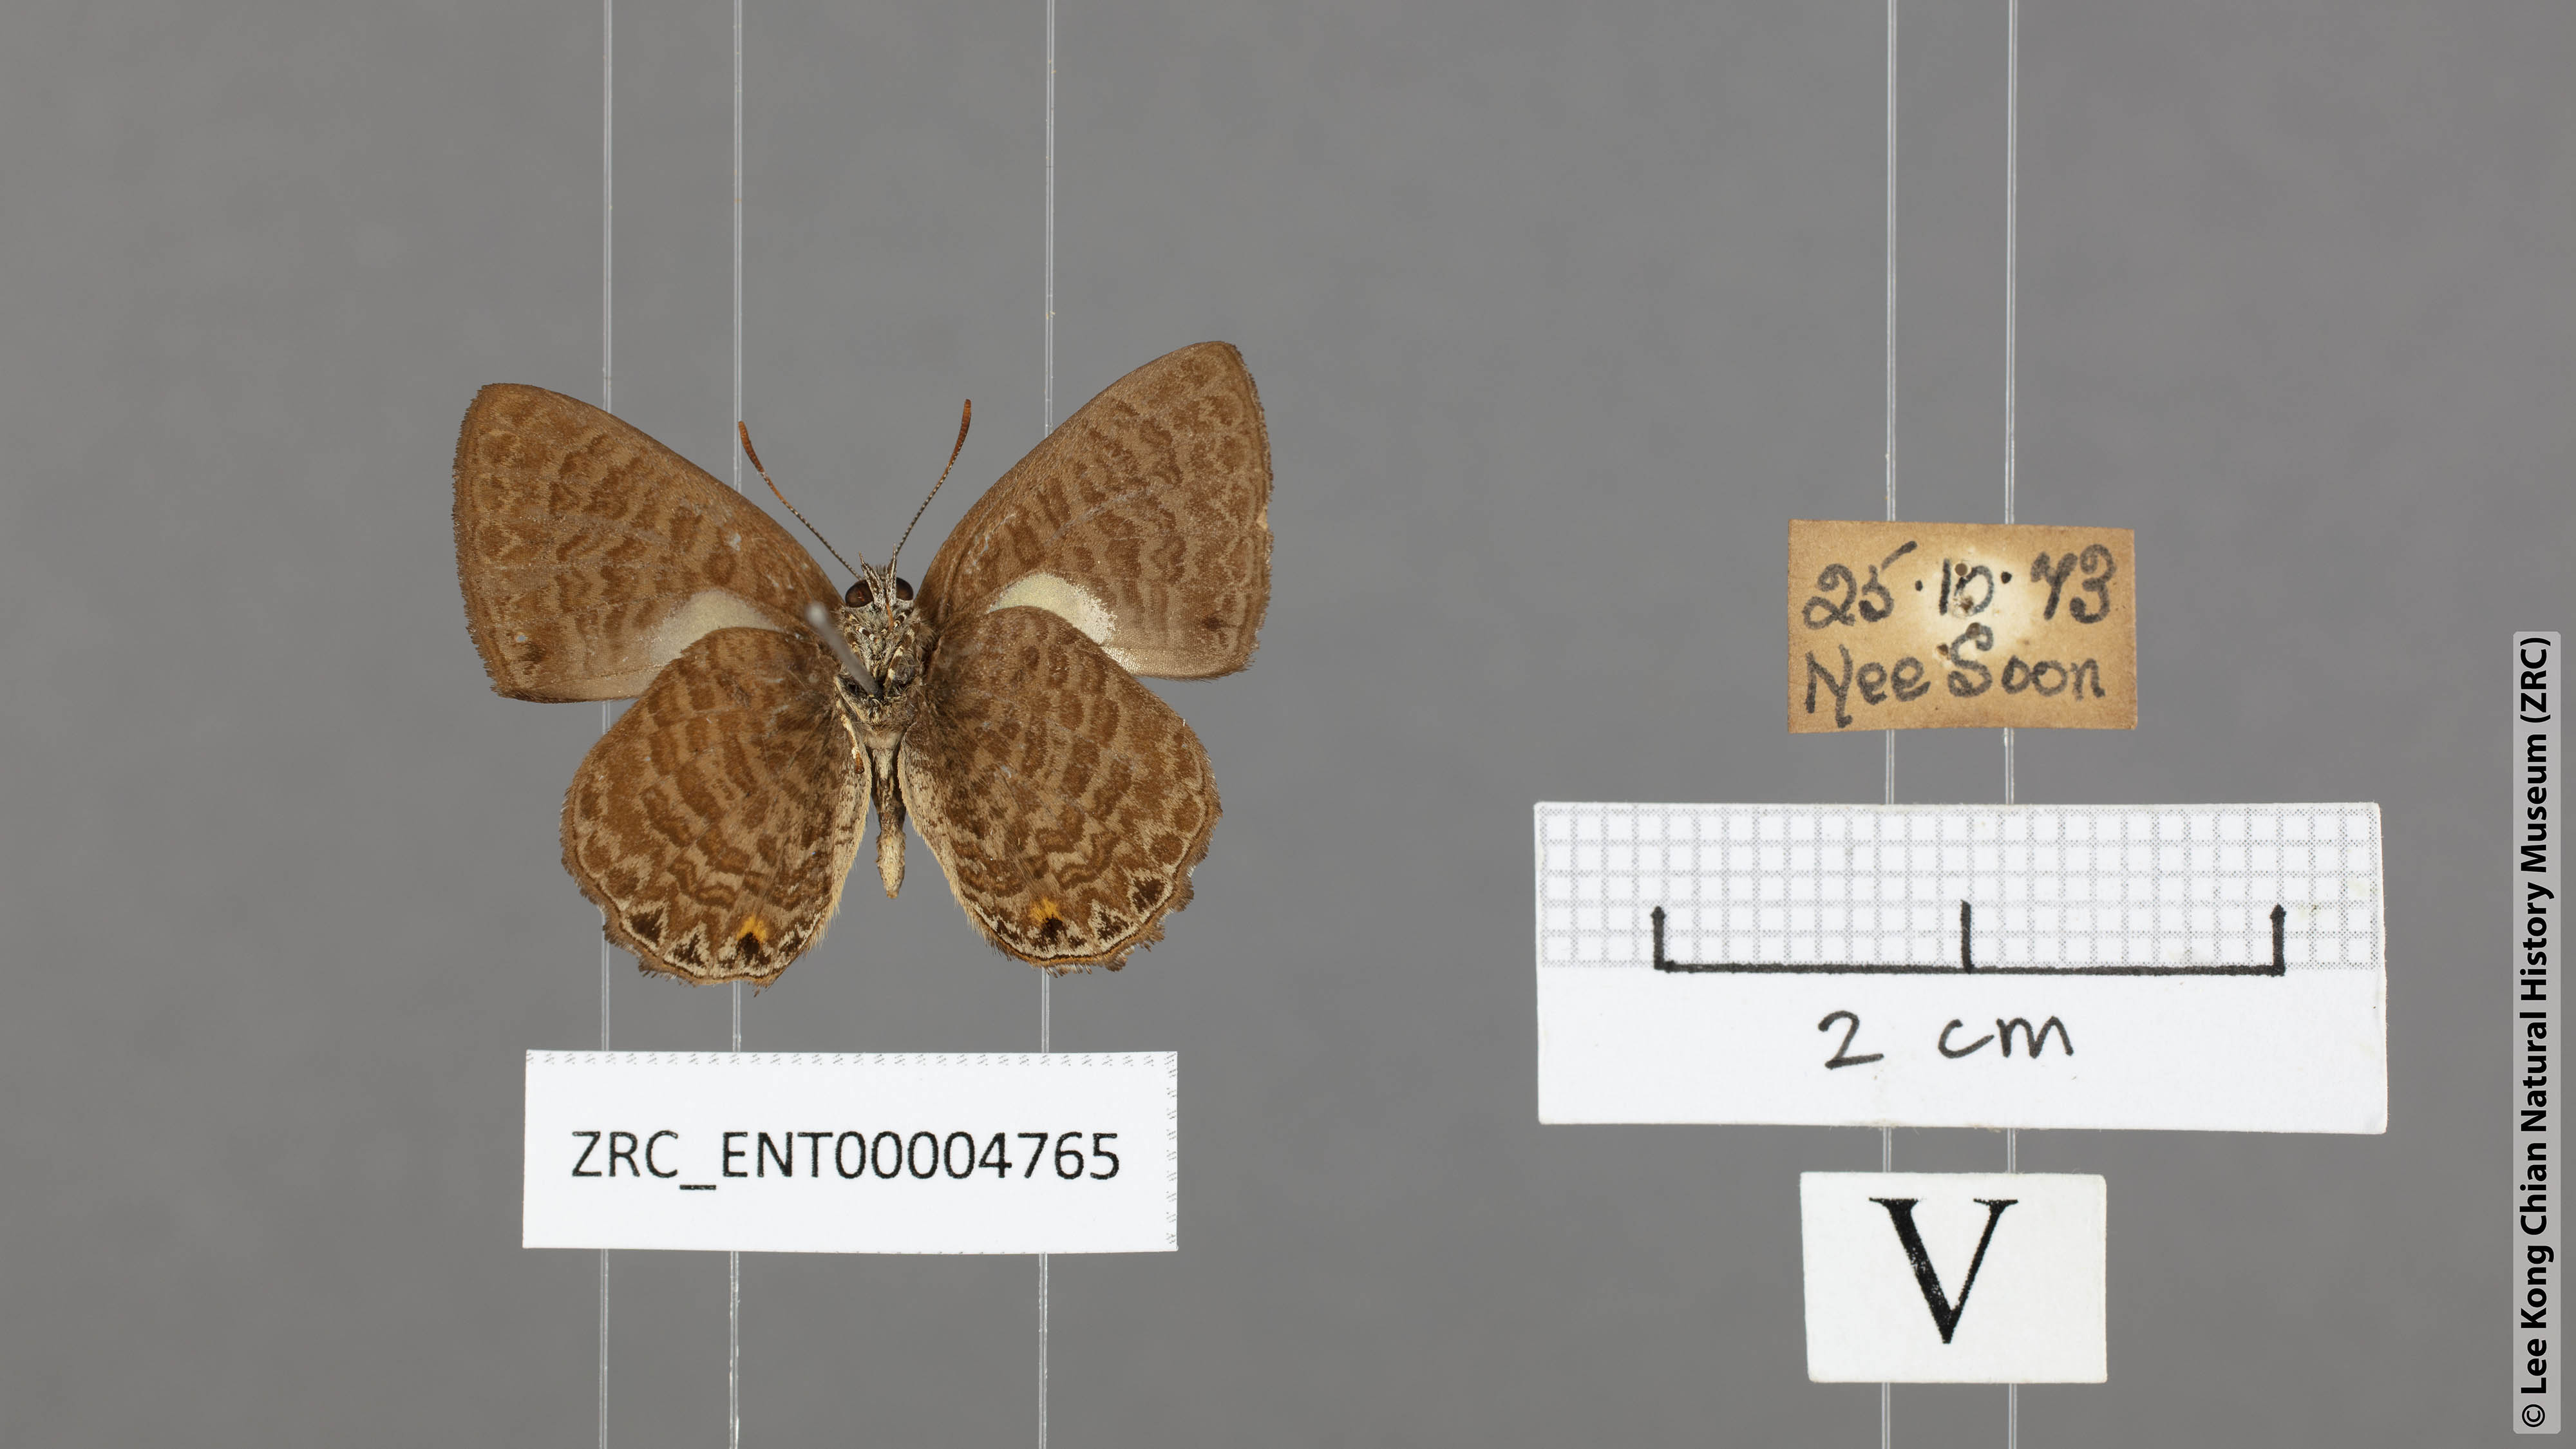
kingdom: Animalia
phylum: Arthropoda
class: Insecta
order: Lepidoptera
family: Lycaenidae
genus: Poritia
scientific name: Poritia philota
